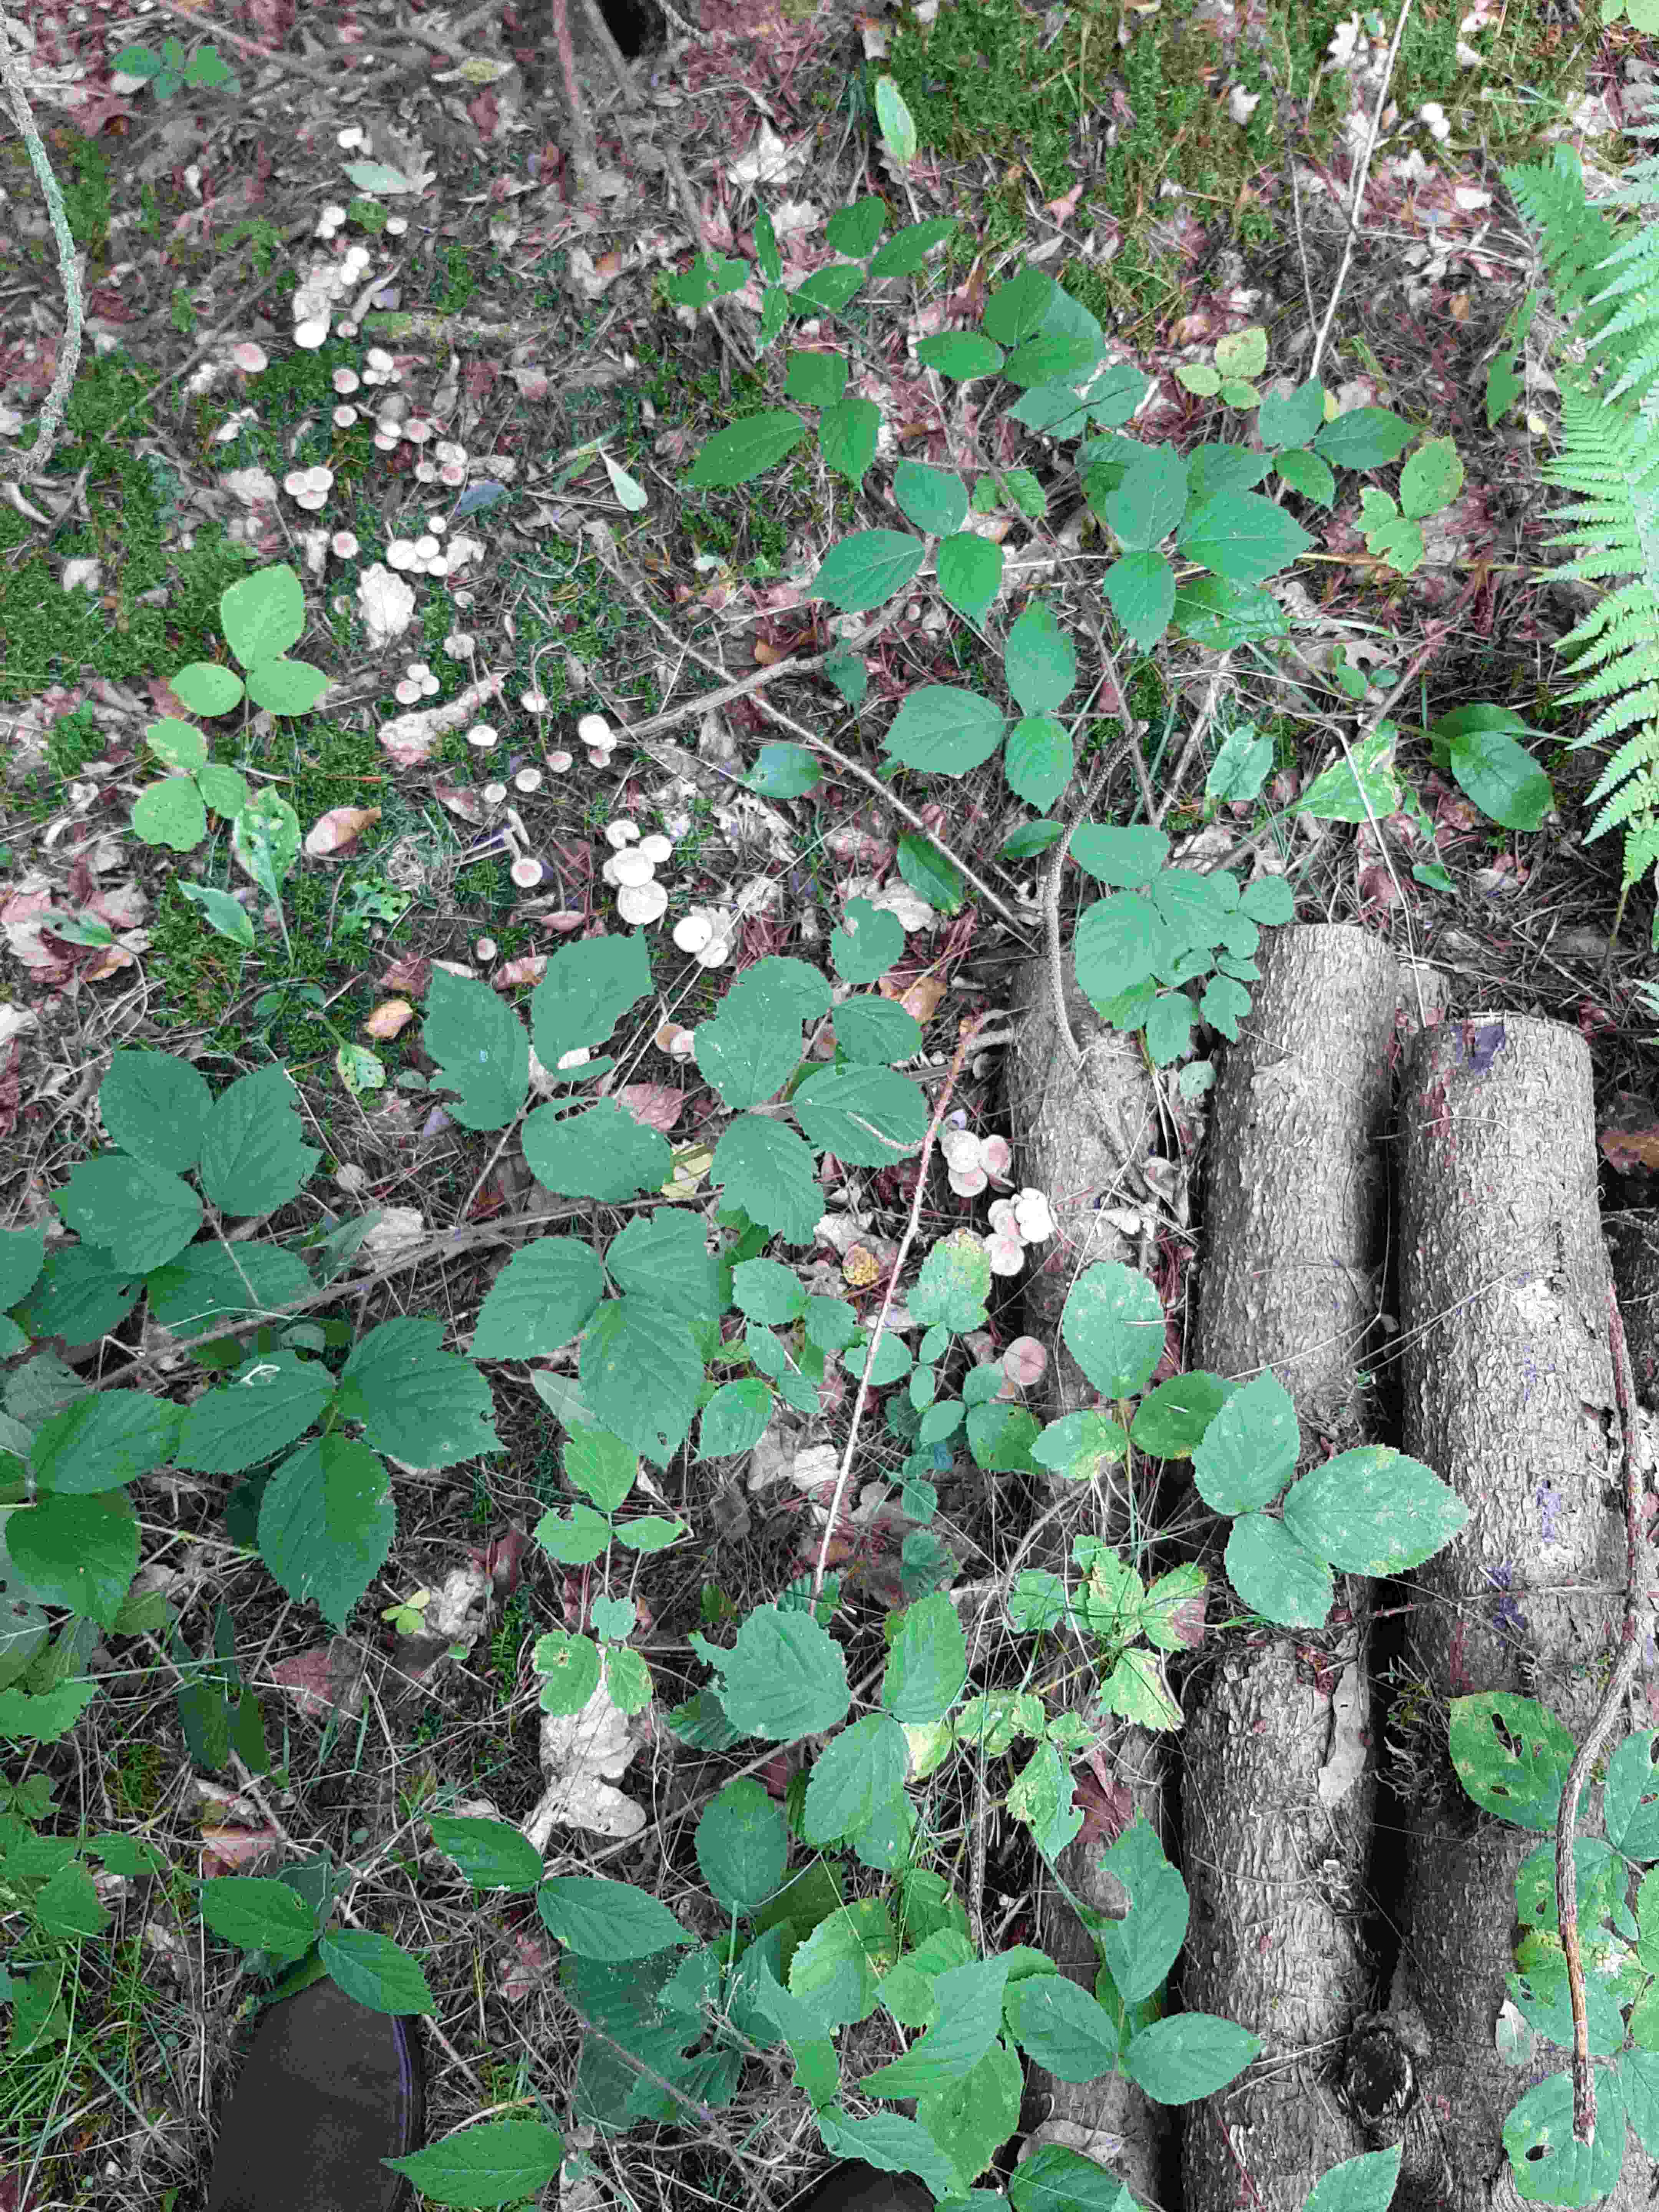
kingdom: Fungi
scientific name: Fungi
